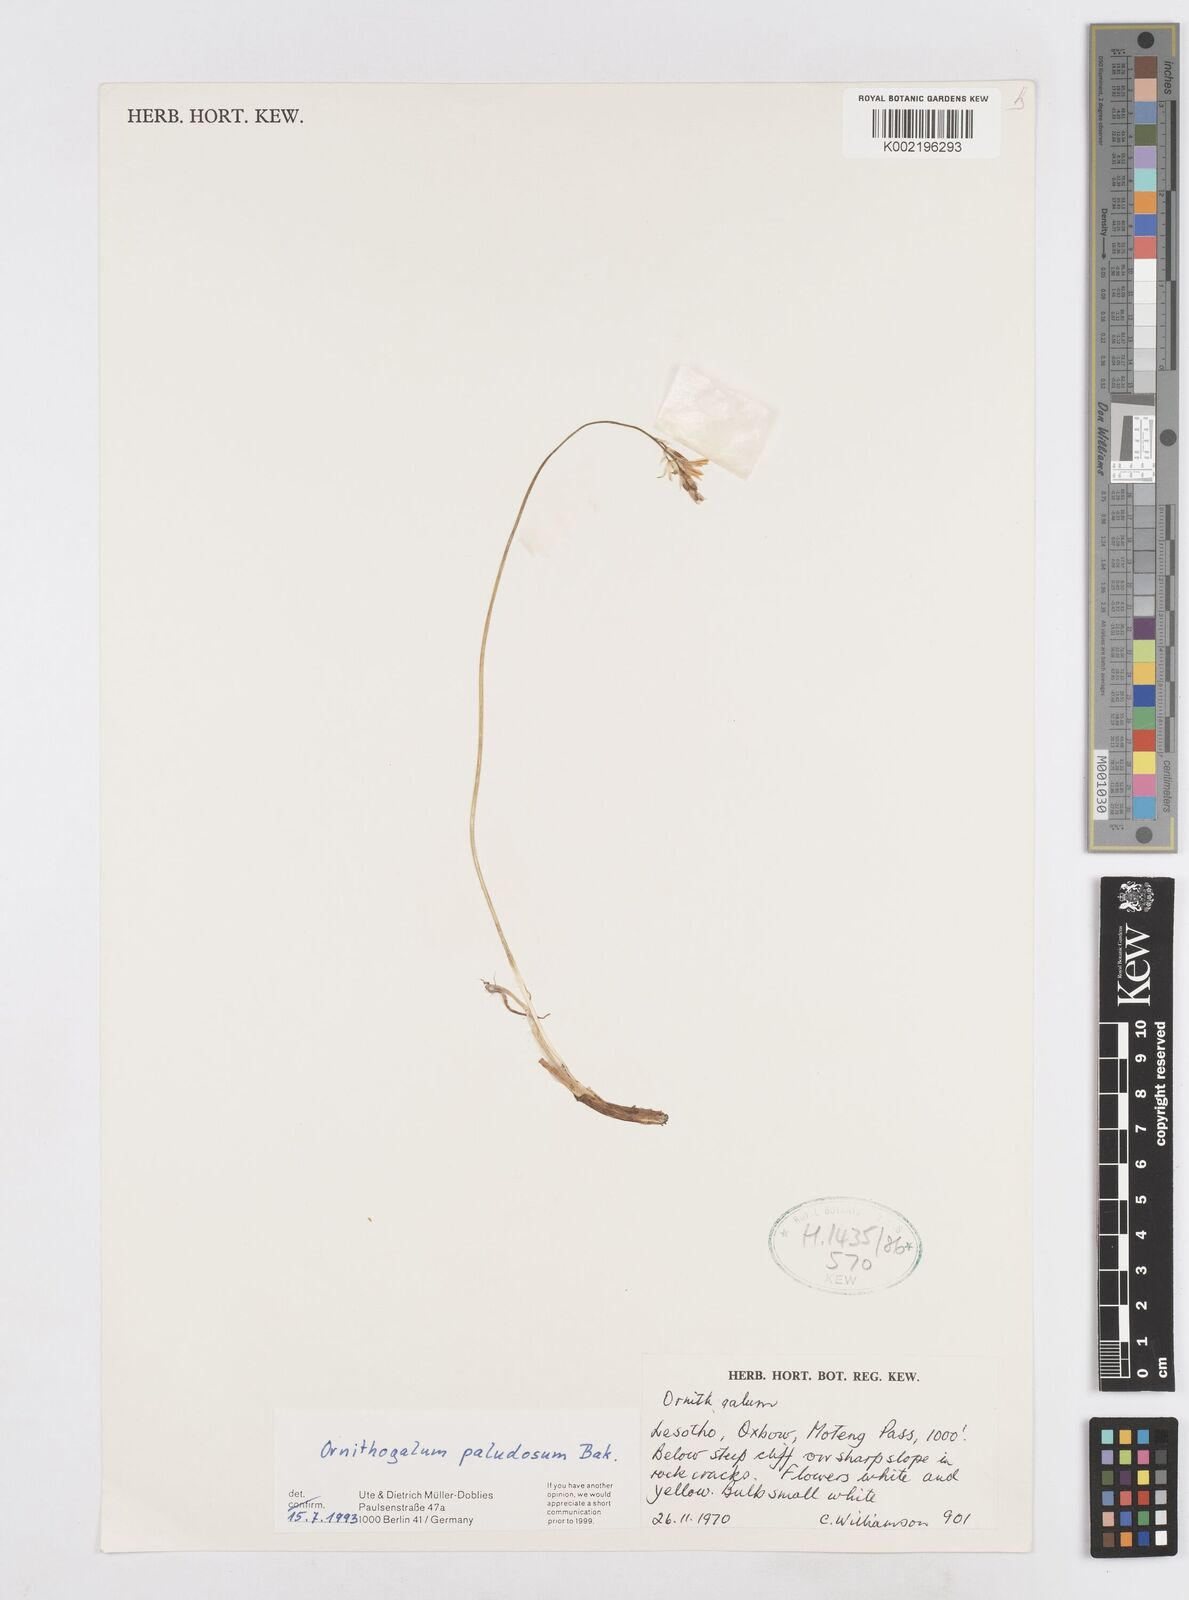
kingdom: Plantae
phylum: Tracheophyta
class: Liliopsida
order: Asparagales
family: Asparagaceae
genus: Ornithogalum
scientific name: Ornithogalum paludosum
